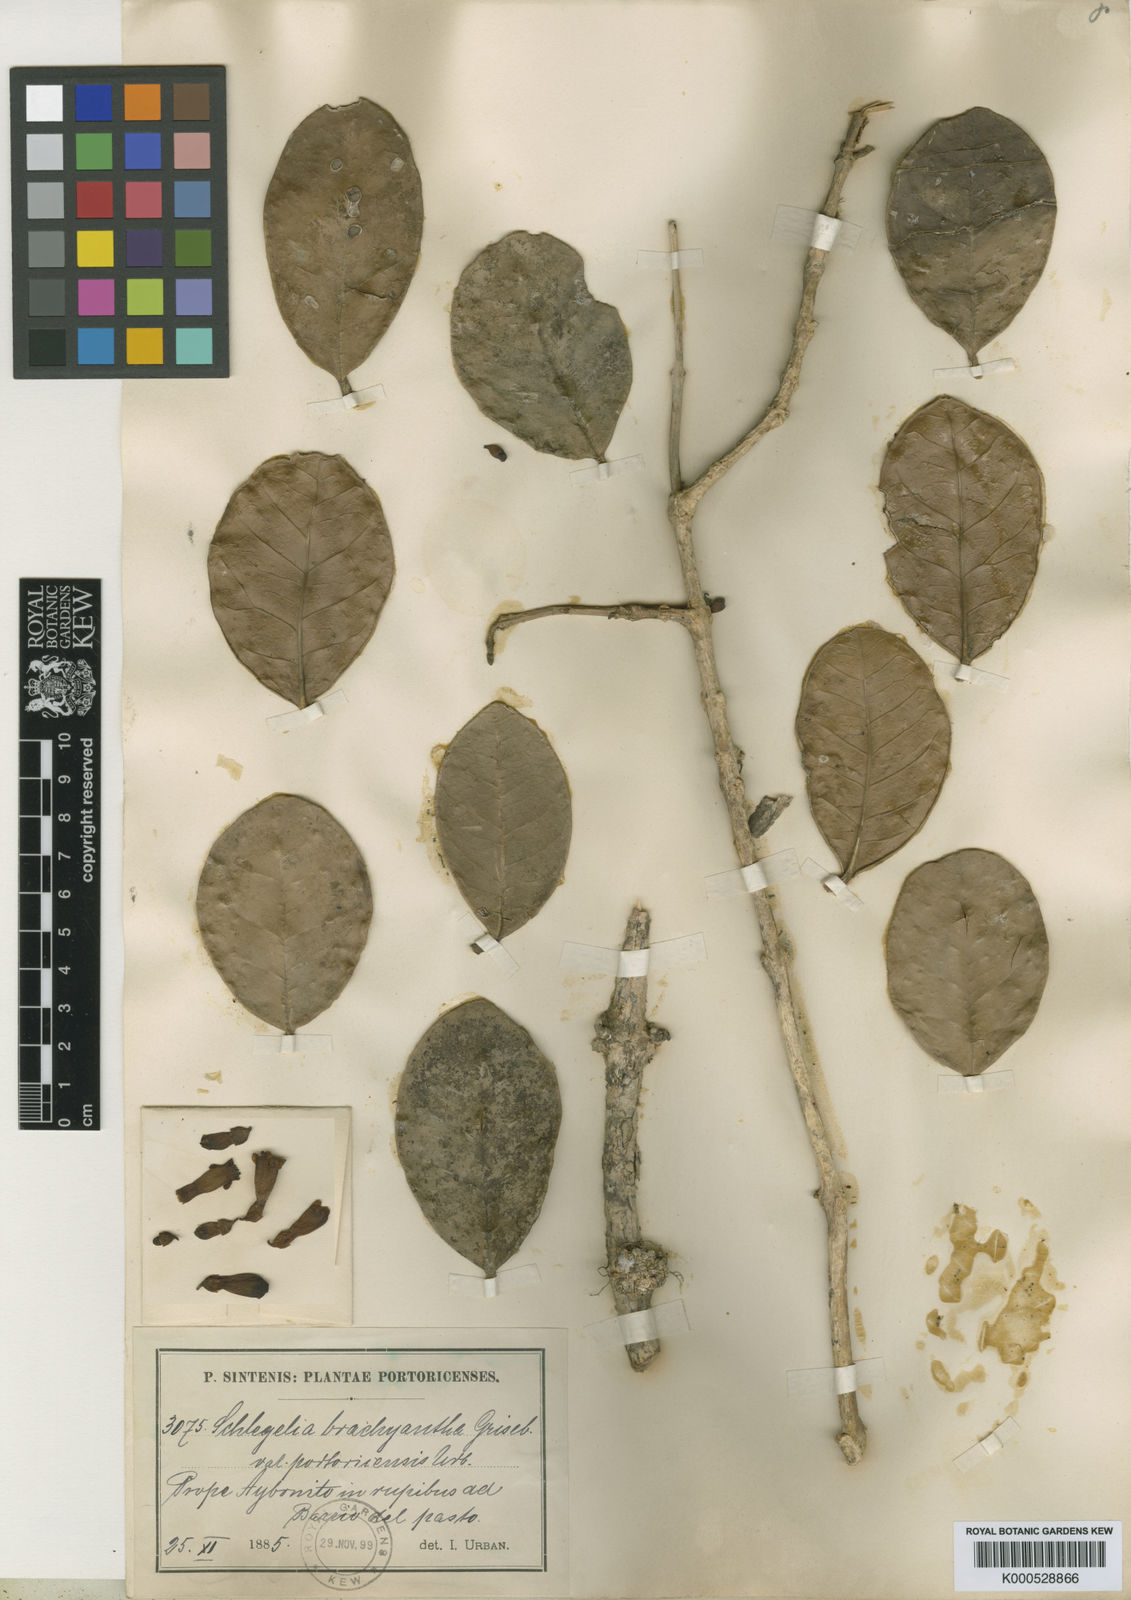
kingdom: Plantae
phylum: Tracheophyta
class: Magnoliopsida
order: Lamiales
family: Schlegeliaceae
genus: Schlegelia
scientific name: Schlegelia brachyantha
